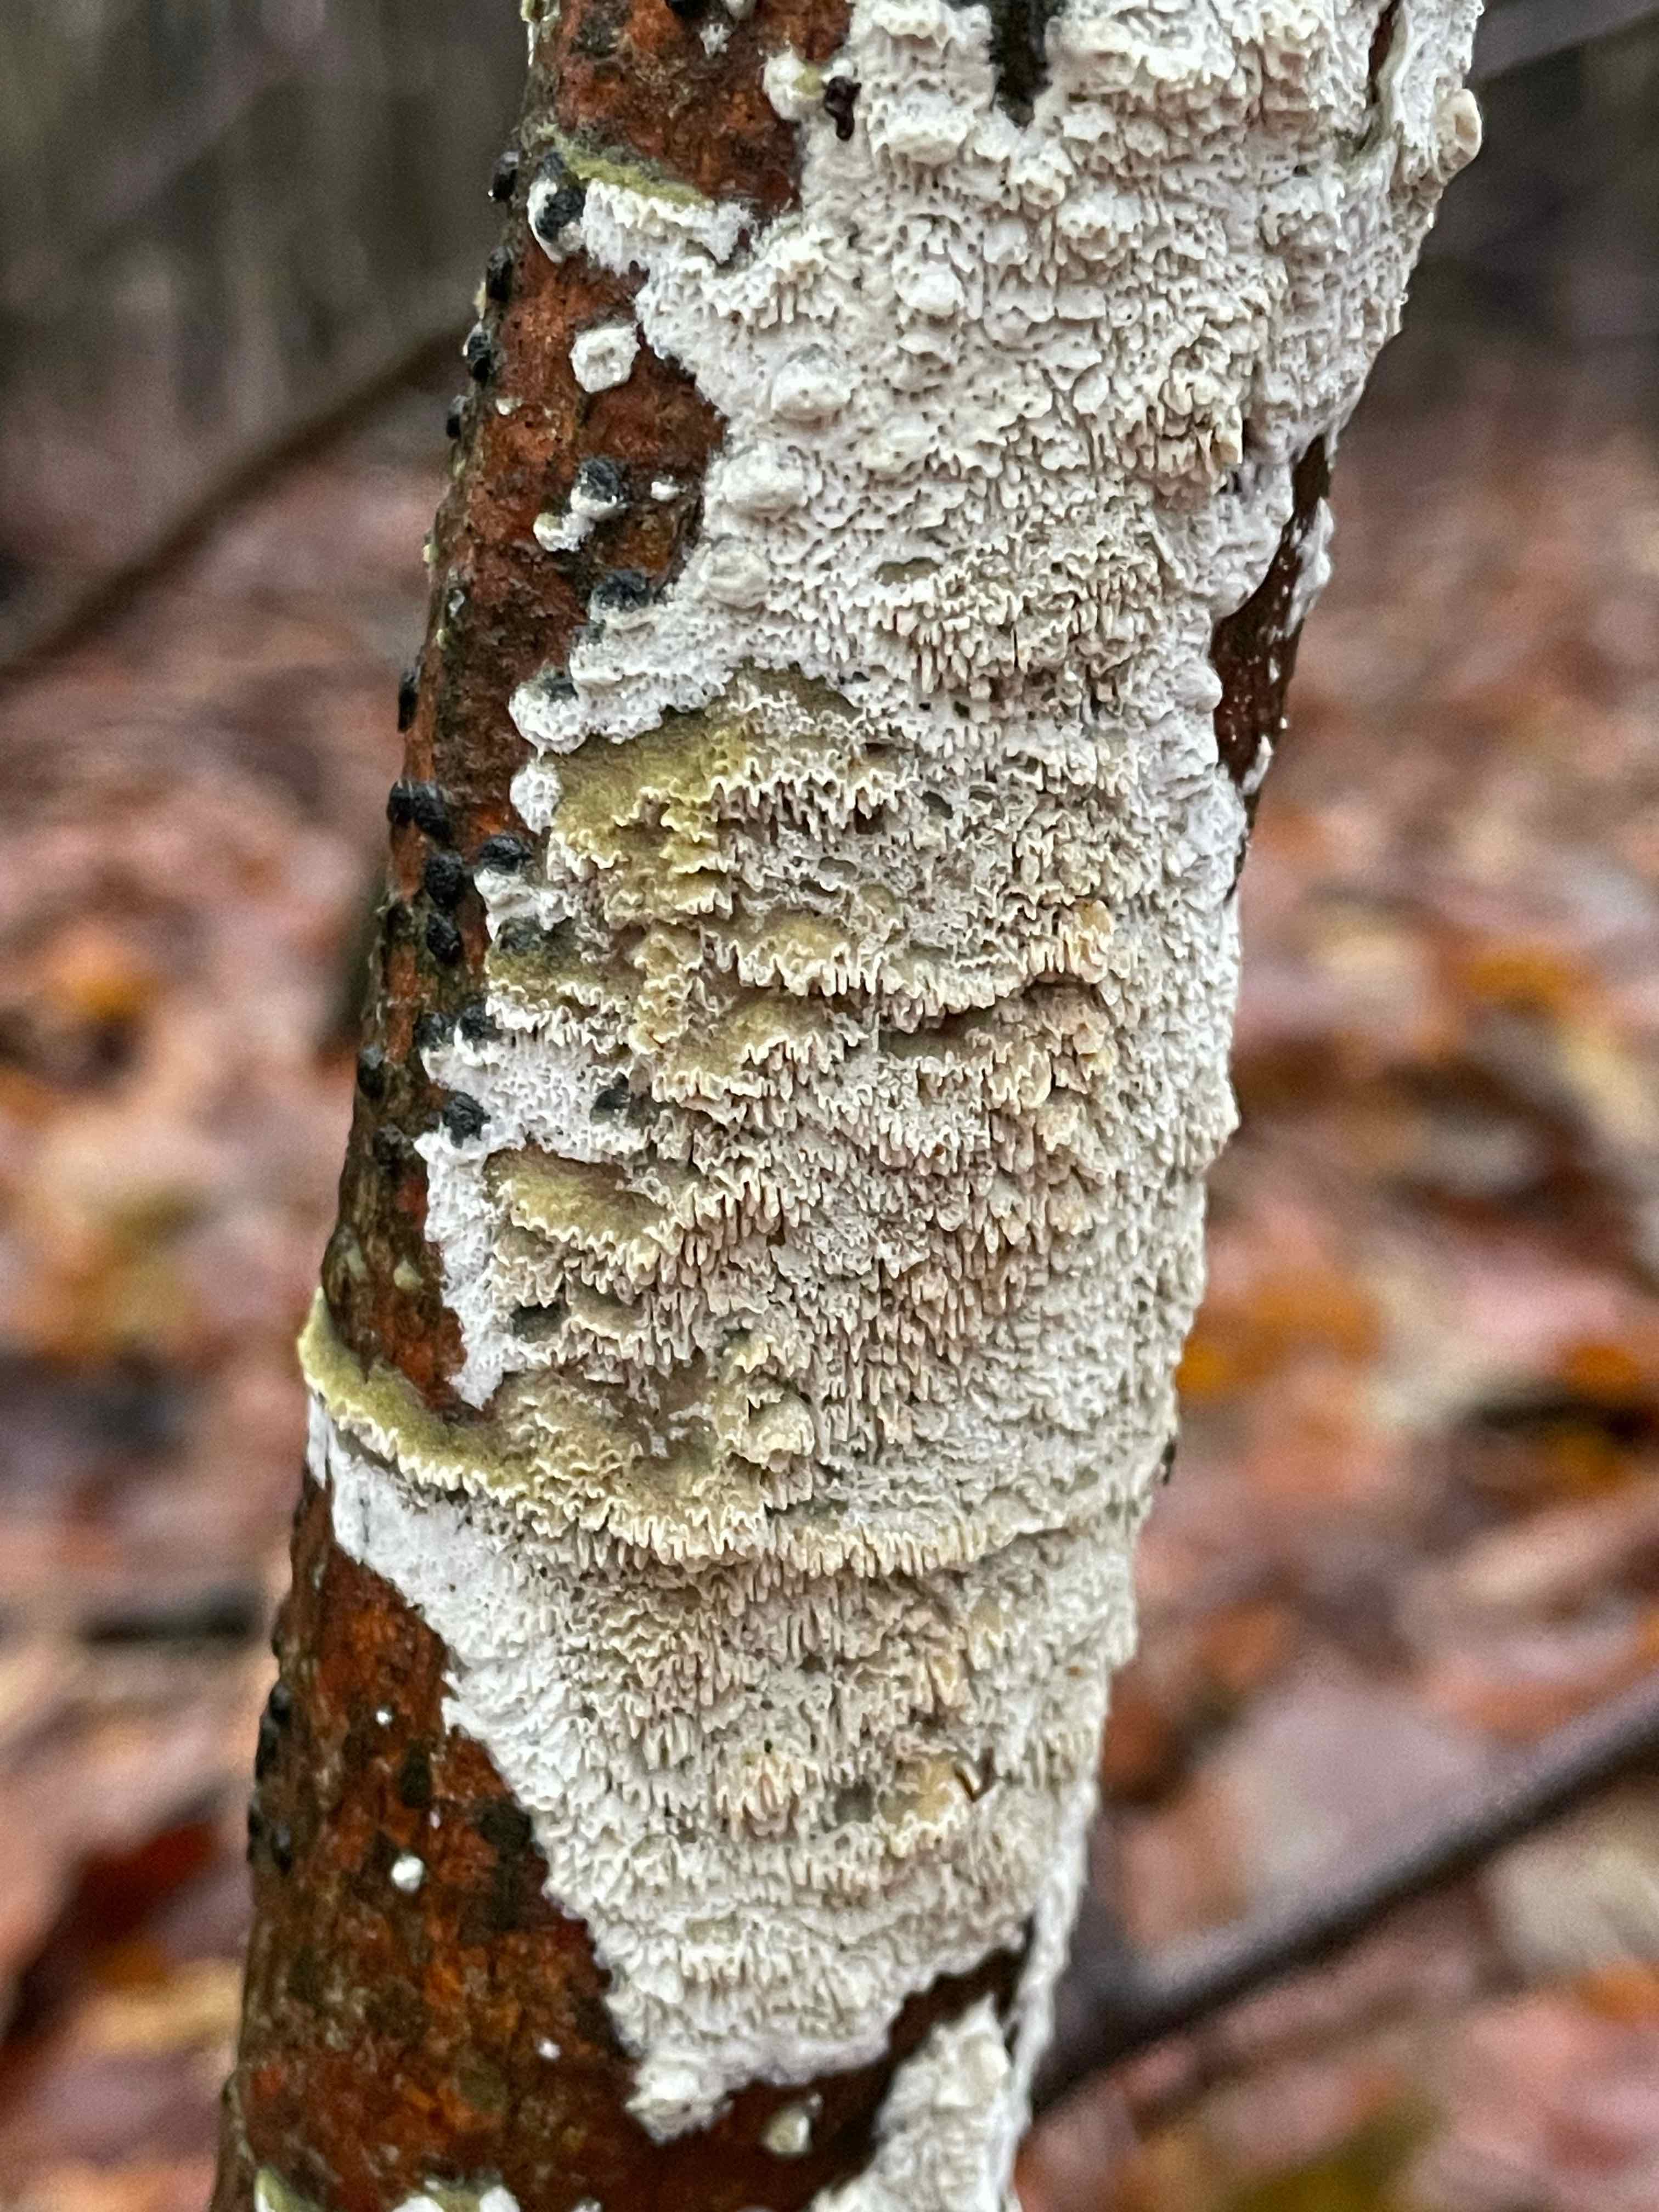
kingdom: Fungi
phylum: Basidiomycota
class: Agaricomycetes
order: Hymenochaetales
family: Schizoporaceae
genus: Schizopora
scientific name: Schizopora paradoxa
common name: hvid tandsvamp
